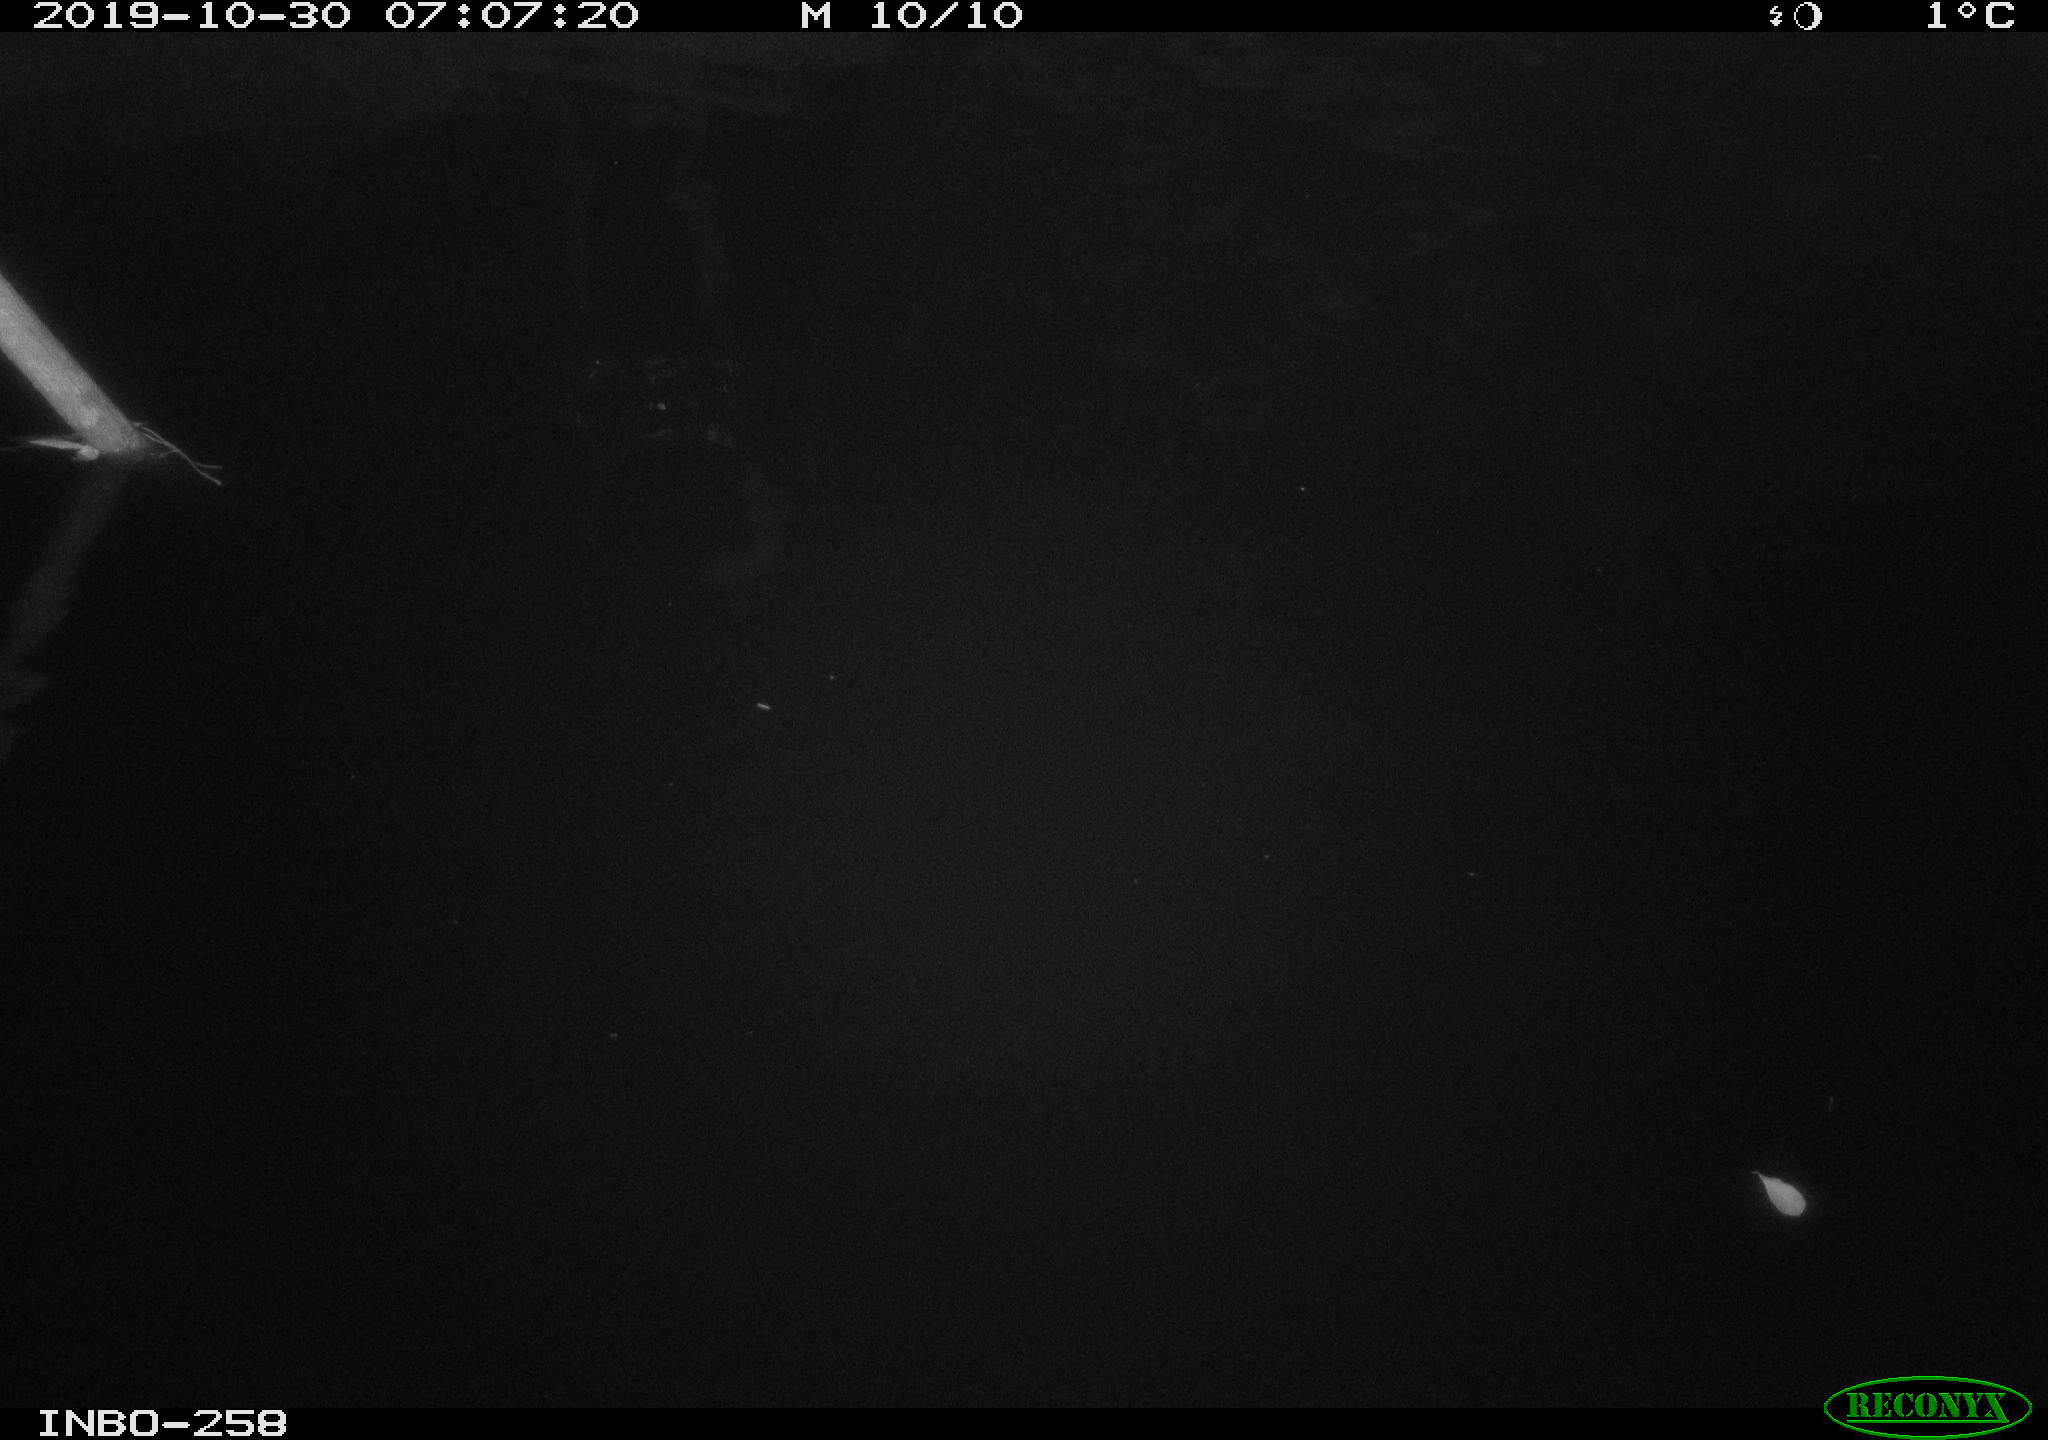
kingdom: Animalia
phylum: Chordata
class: Aves
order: Anseriformes
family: Anatidae
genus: Anas
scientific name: Anas platyrhynchos
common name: Mallard
